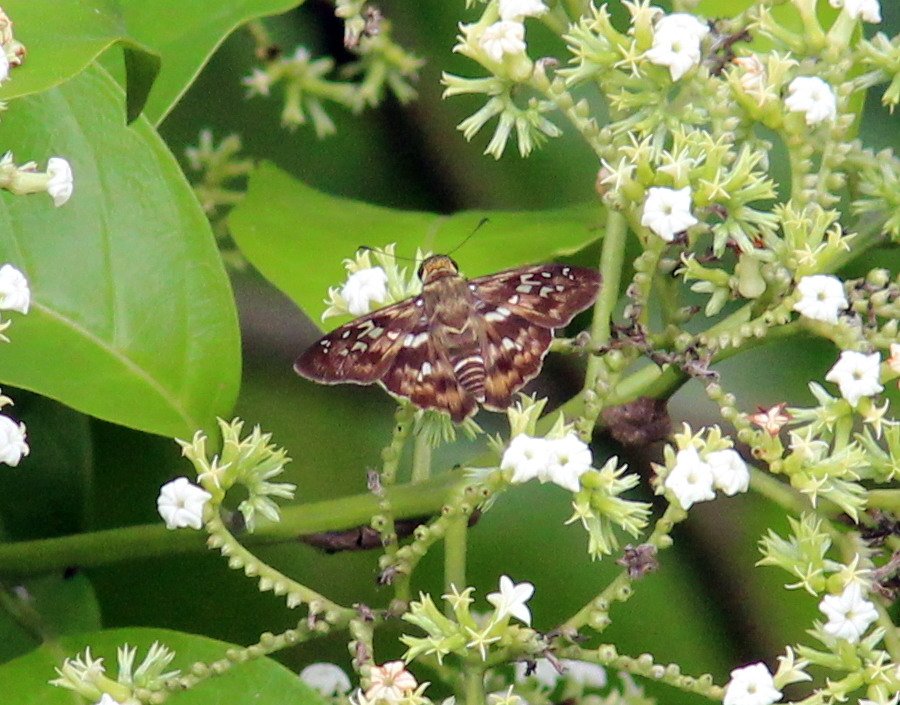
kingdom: Animalia
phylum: Arthropoda
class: Insecta
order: Lepidoptera
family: Hesperiidae
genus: Udranomia
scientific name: Udranomia kikkawai
